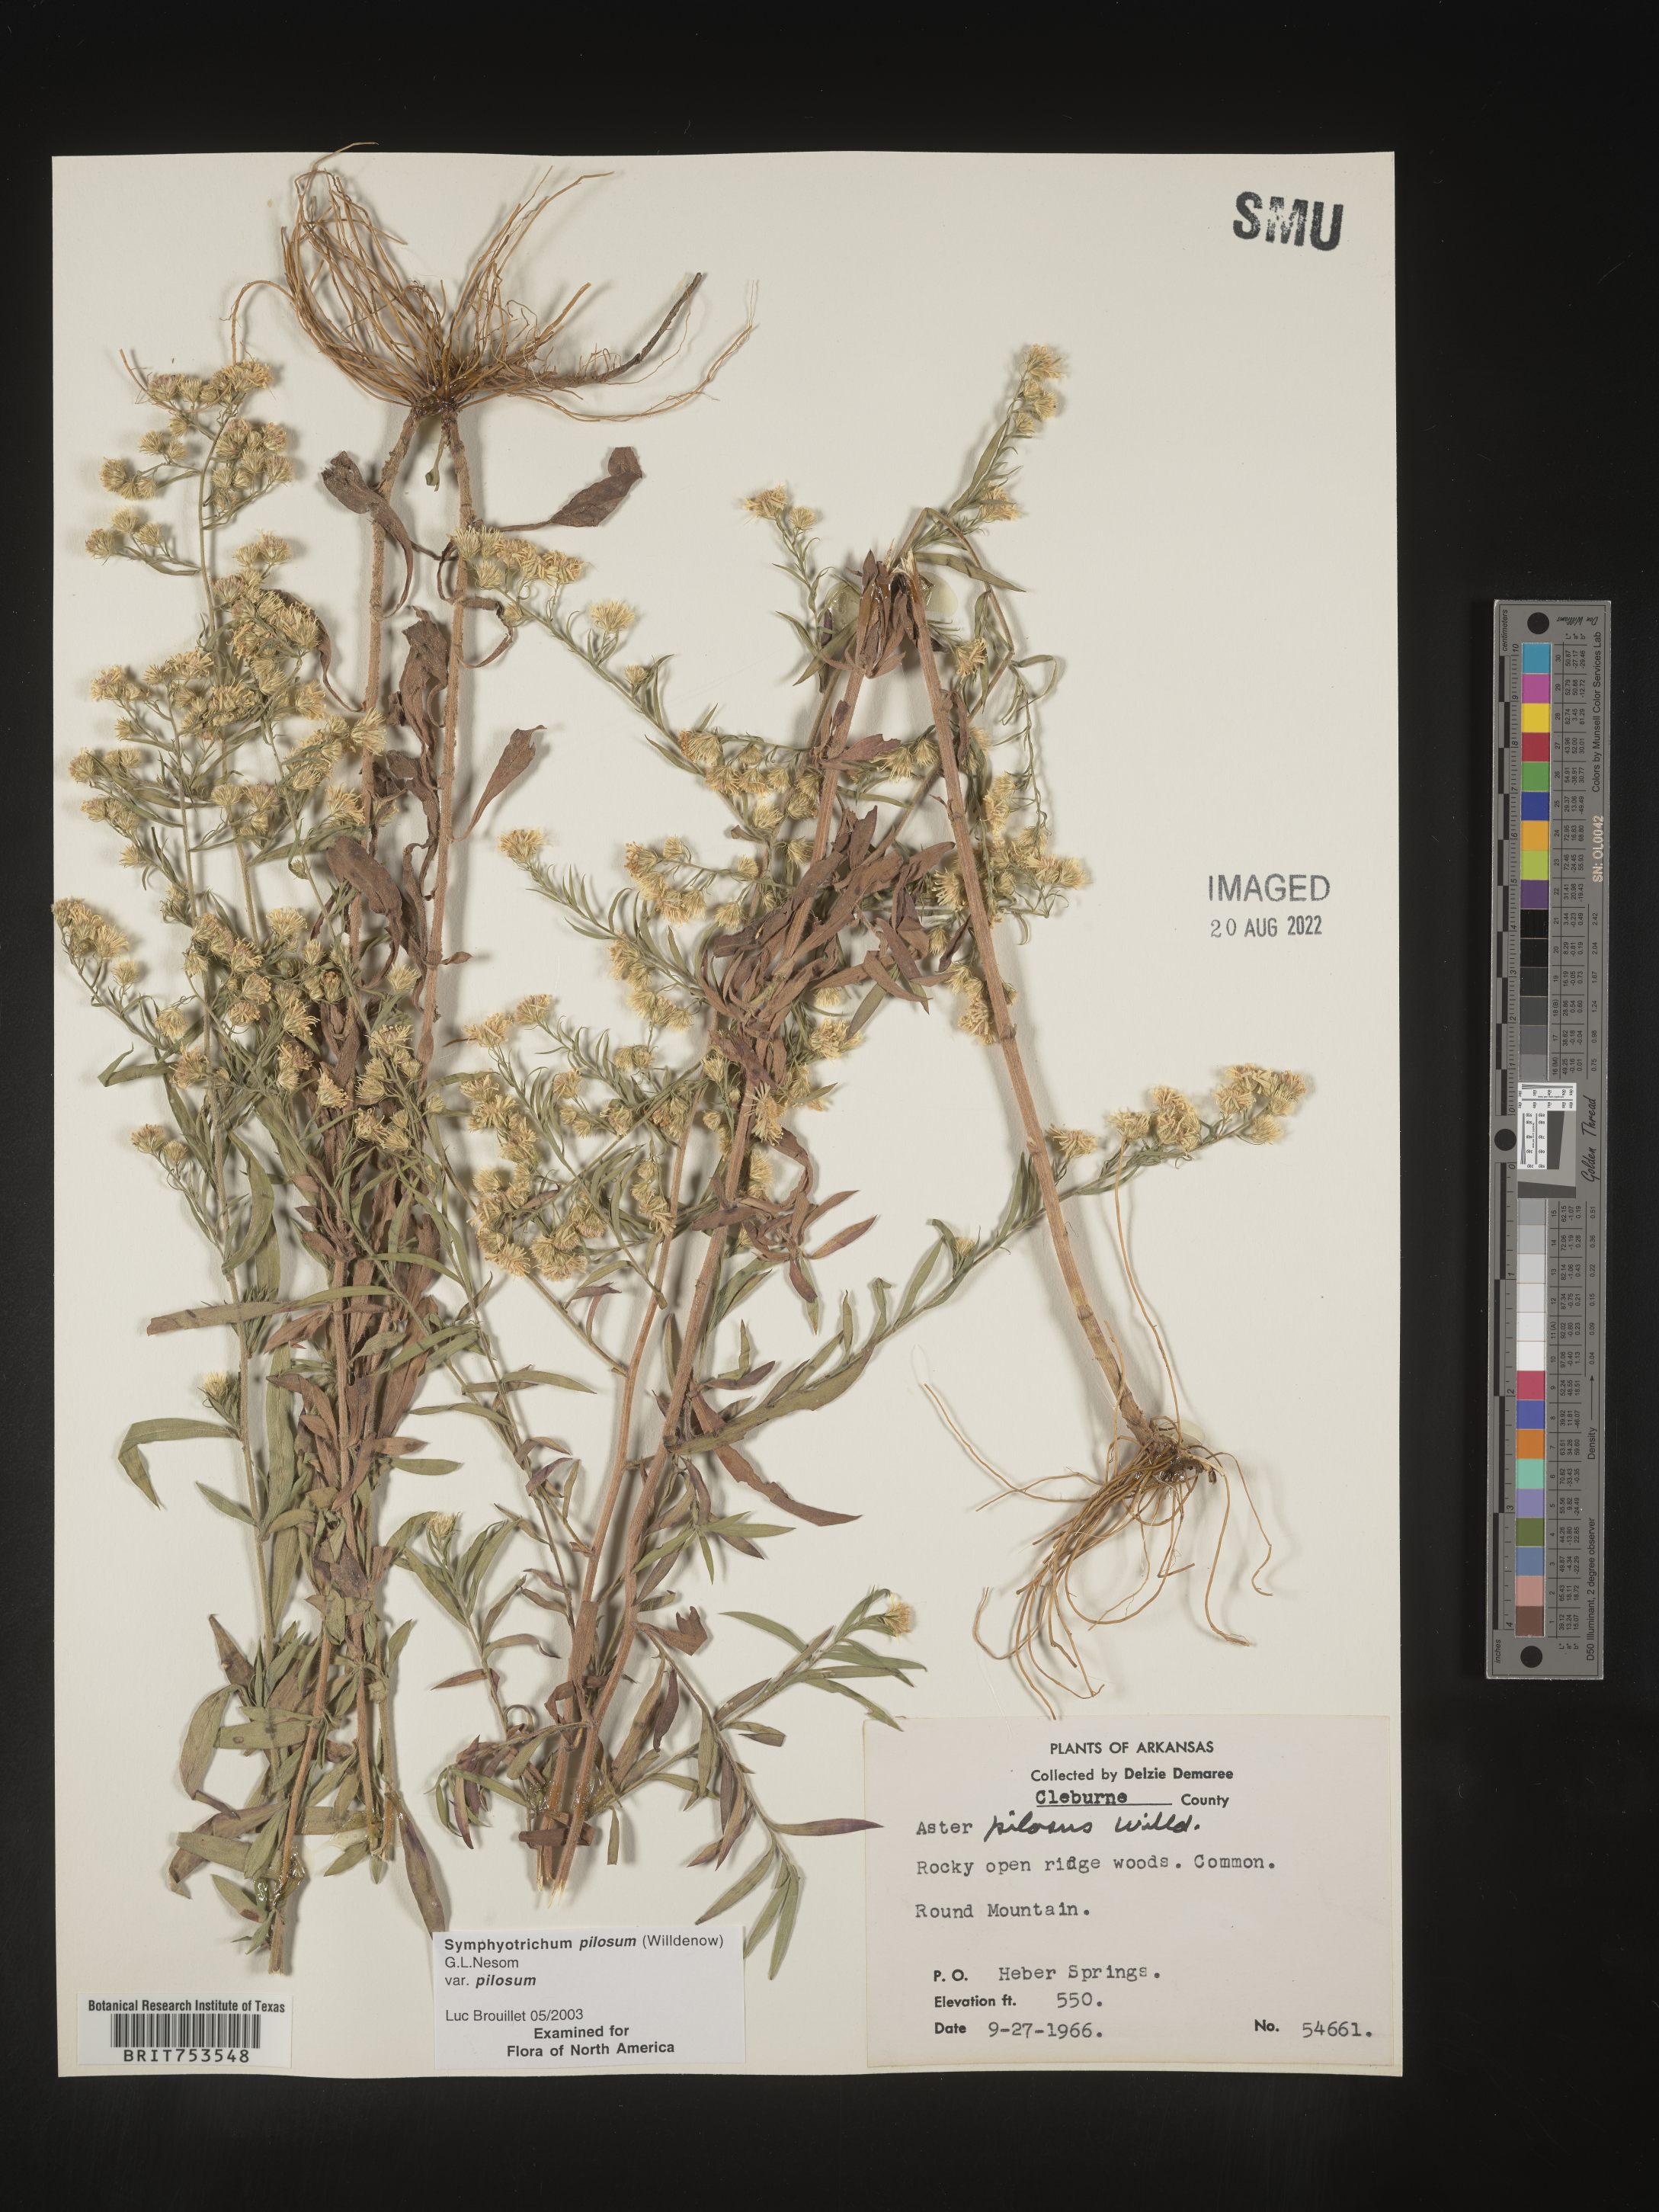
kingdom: Plantae
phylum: Tracheophyta
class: Magnoliopsida
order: Asterales
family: Asteraceae
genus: Symphyotrichum
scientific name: Symphyotrichum pilosum
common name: Awl aster
